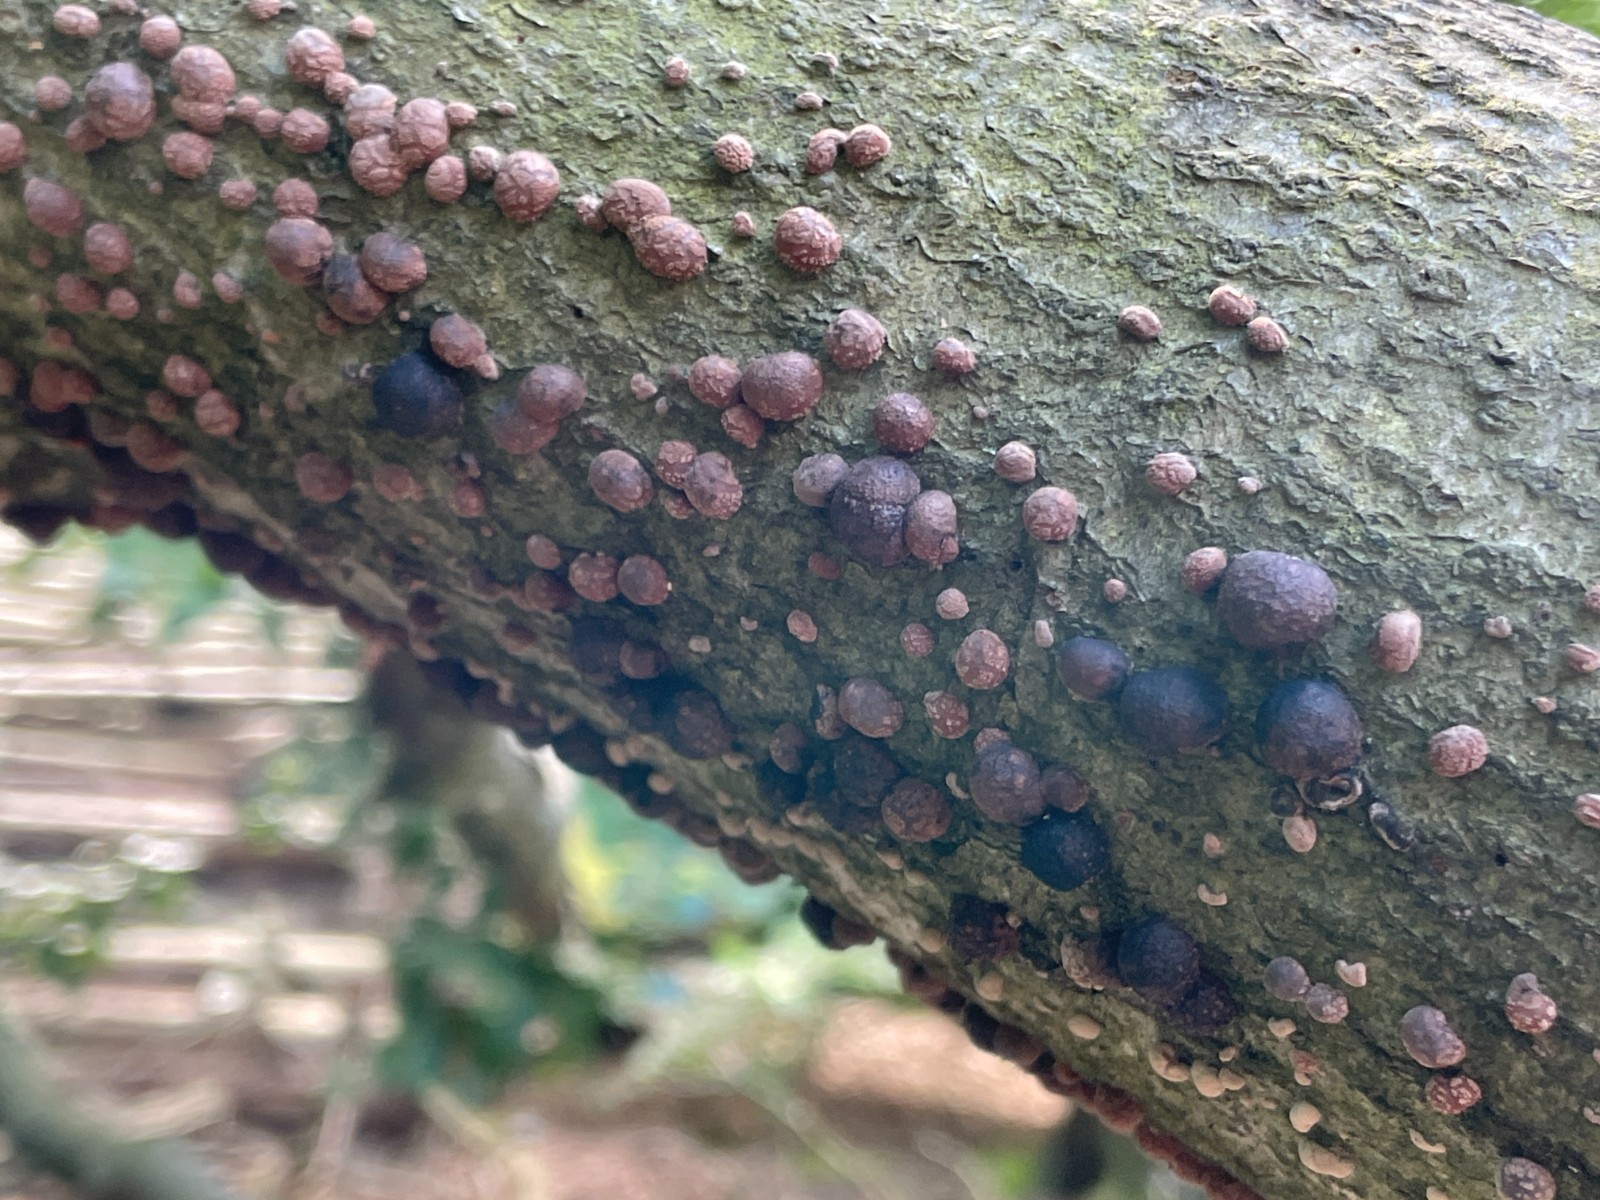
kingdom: Fungi
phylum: Ascomycota
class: Sordariomycetes
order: Xylariales
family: Hypoxylaceae
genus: Hypoxylon
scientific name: Hypoxylon fragiforme
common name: kuljordbær
